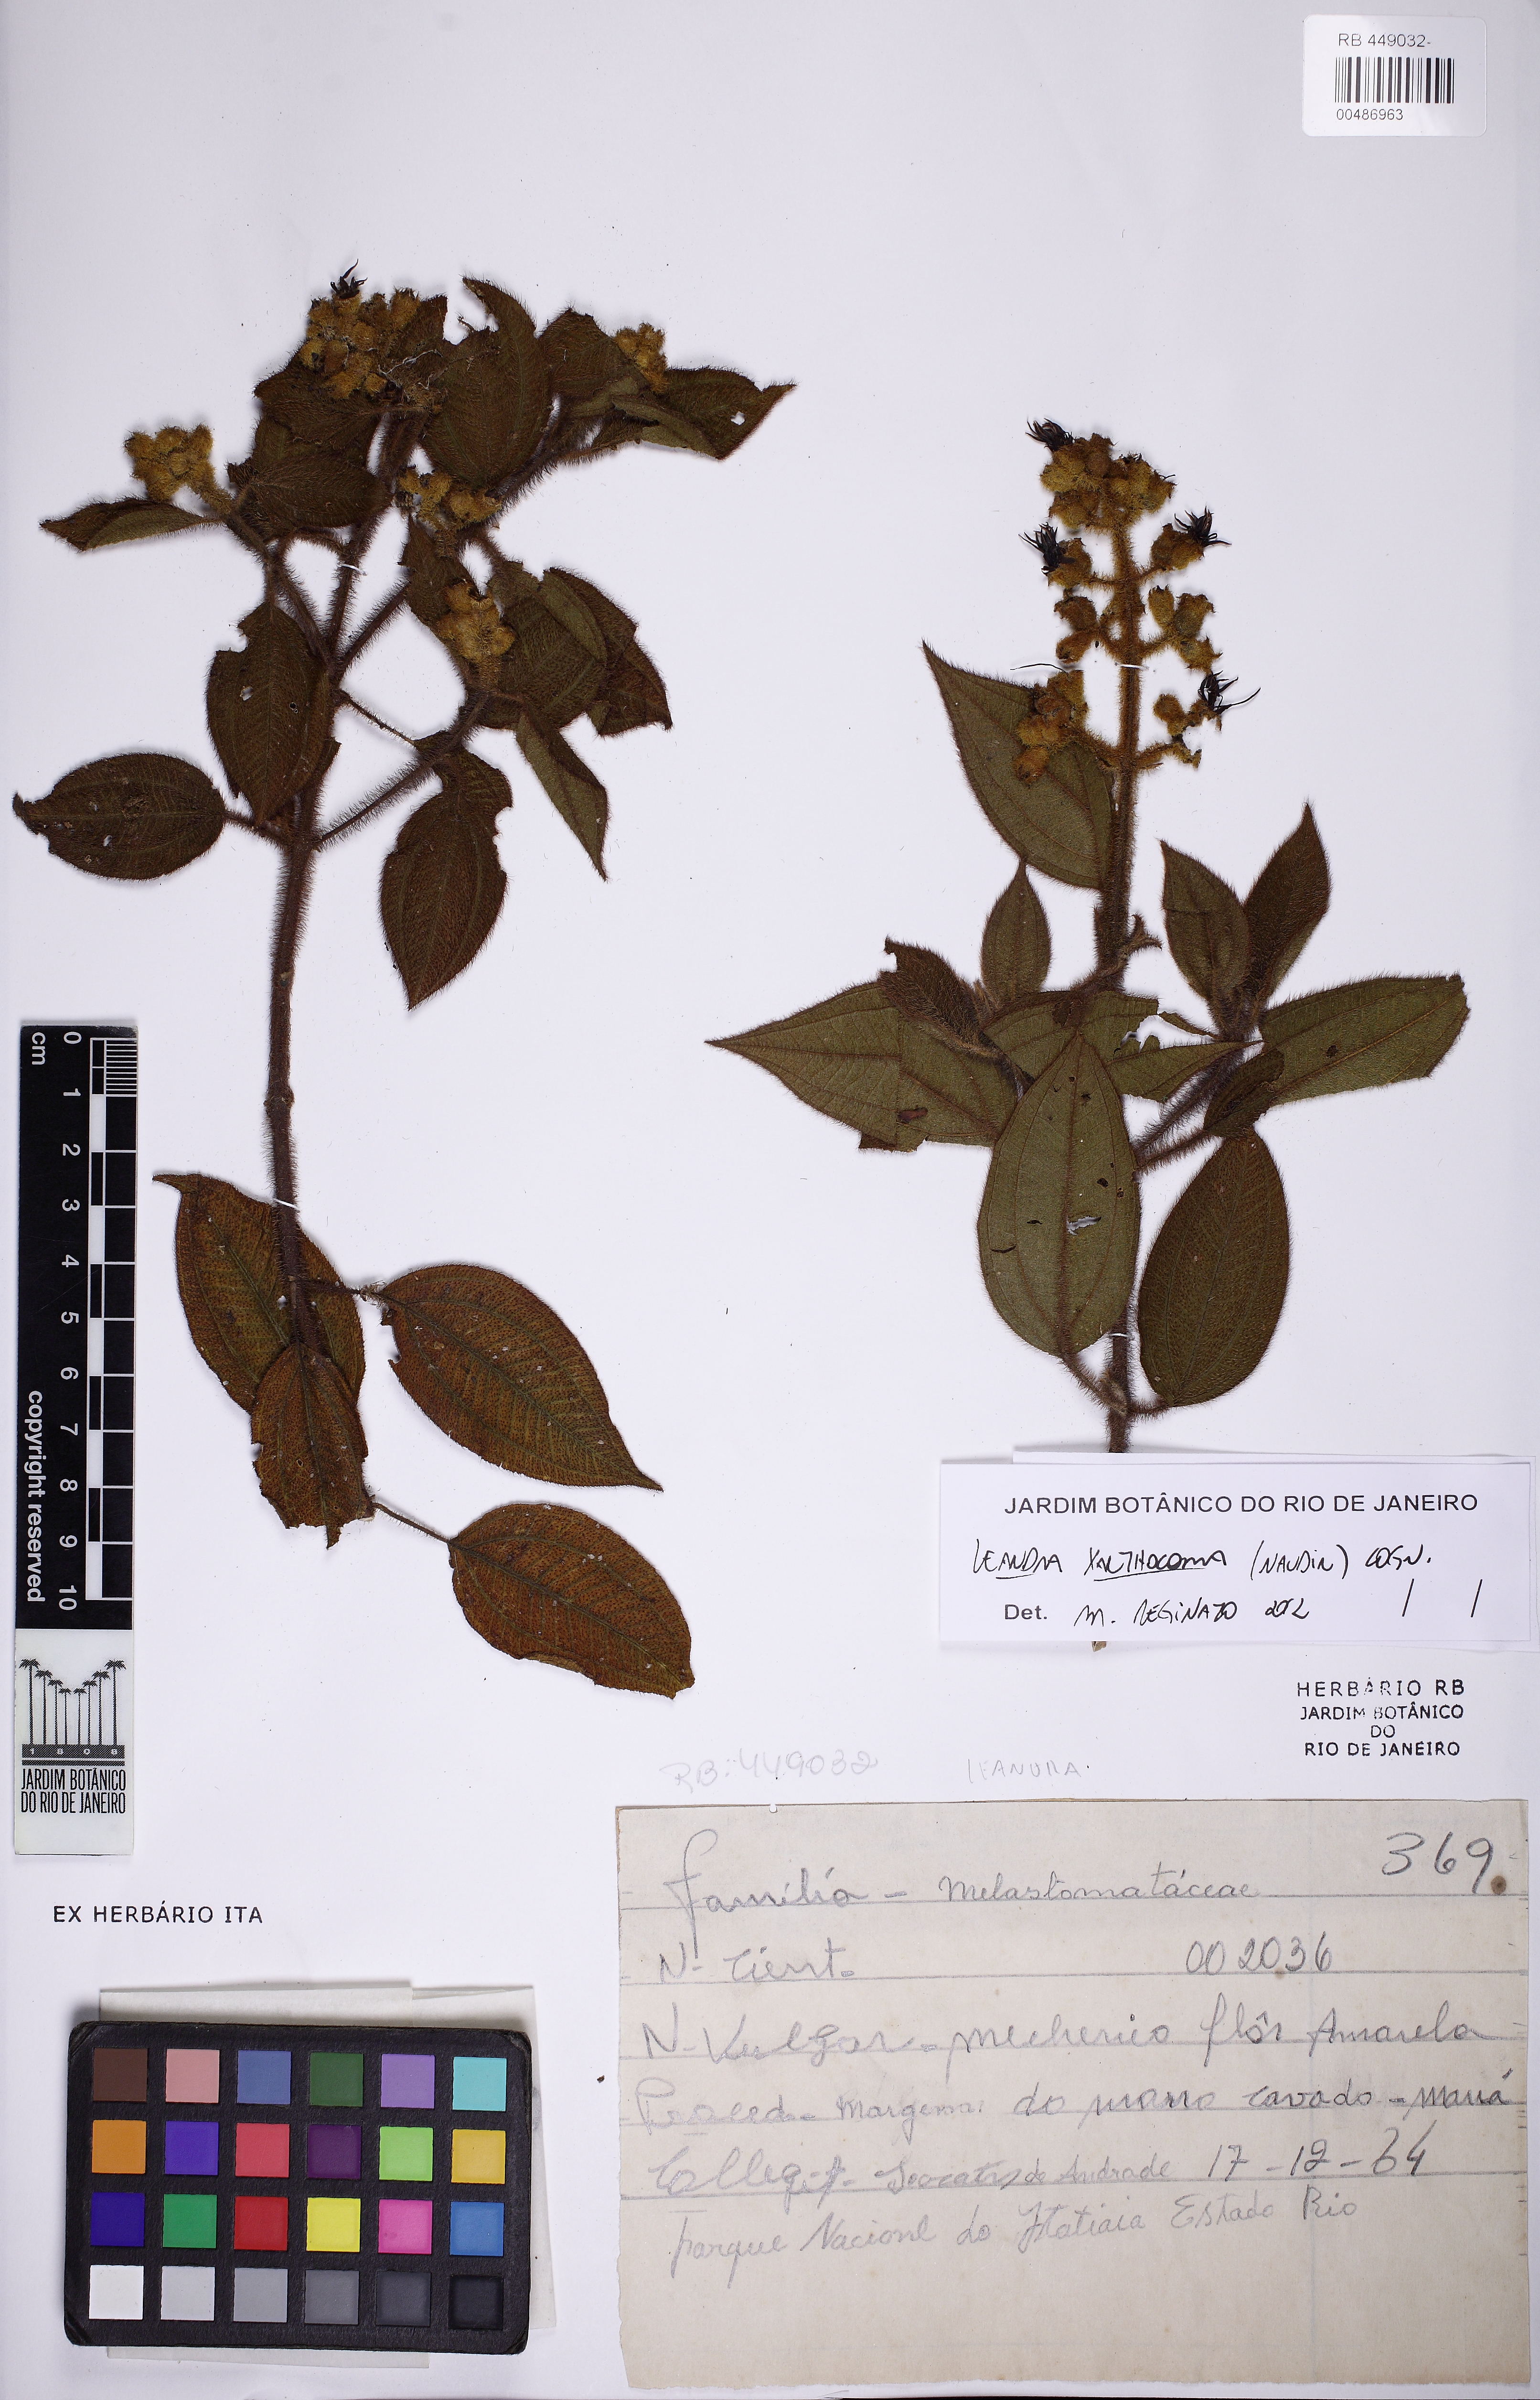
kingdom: Plantae
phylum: Tracheophyta
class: Magnoliopsida
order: Myrtales
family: Melastomataceae
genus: Miconia
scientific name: Miconia xanthocoma
